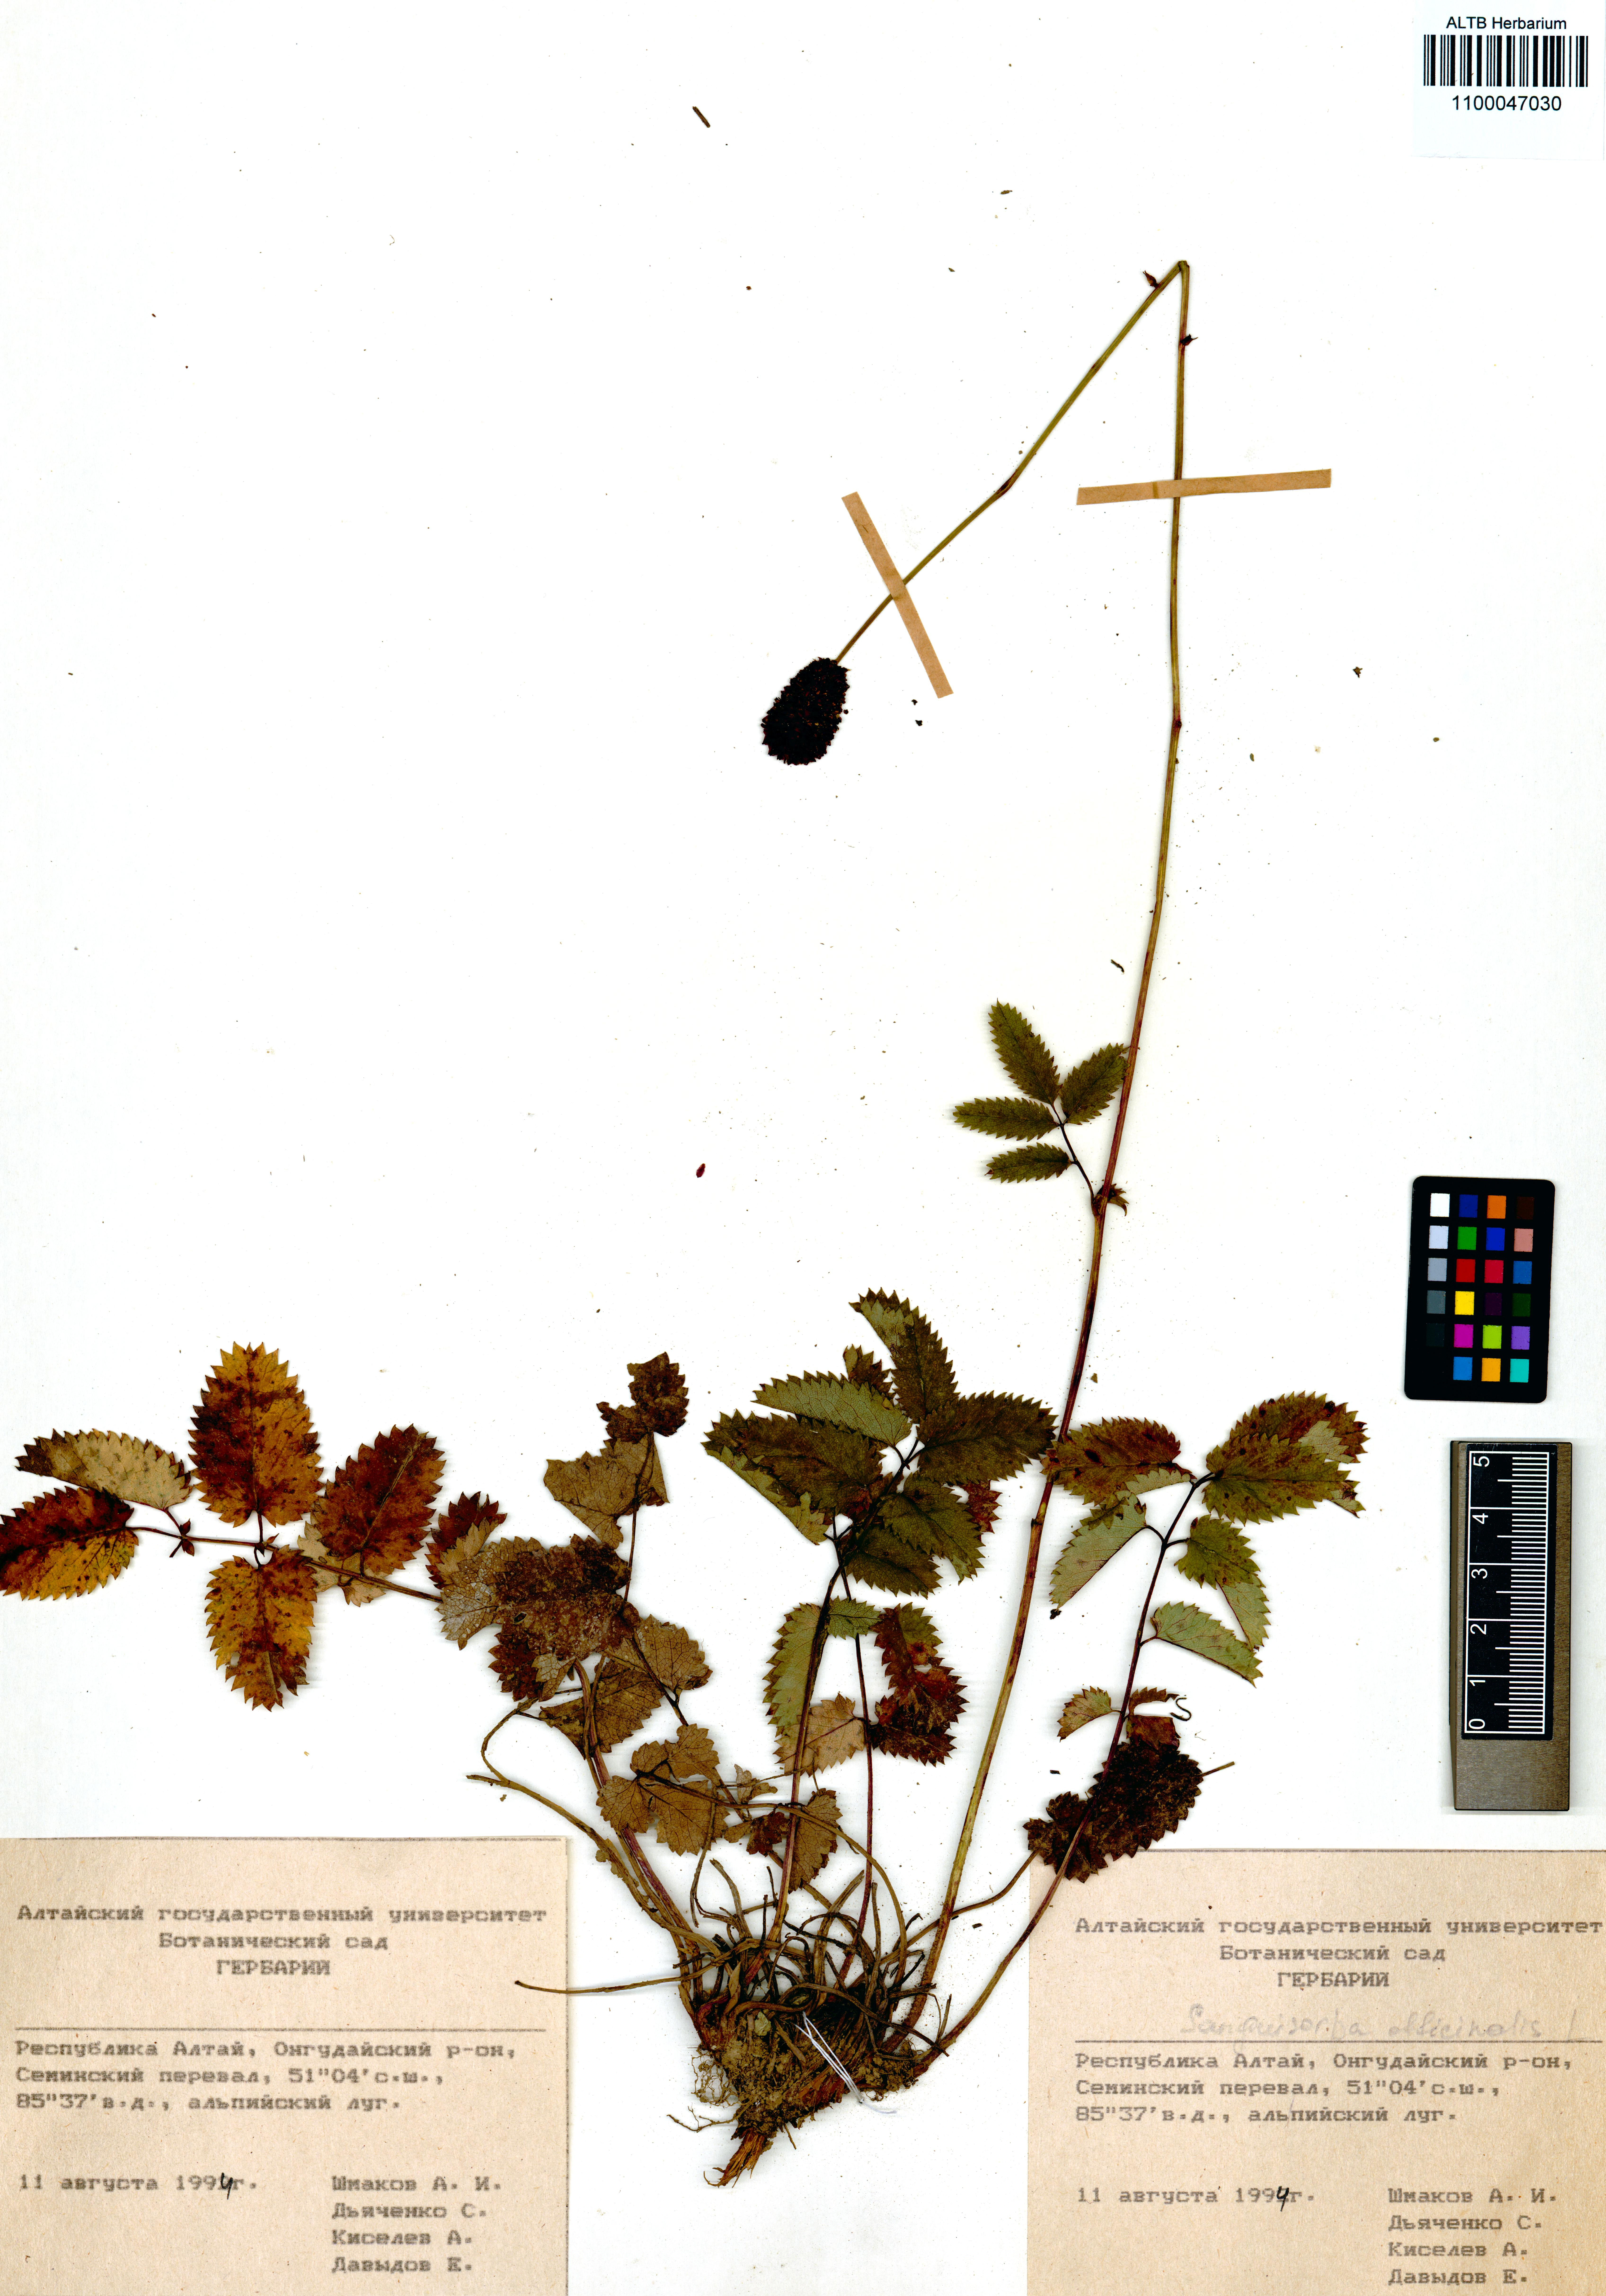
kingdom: Plantae
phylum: Tracheophyta
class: Magnoliopsida
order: Rosales
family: Rosaceae
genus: Sanguisorba
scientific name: Sanguisorba officinalis
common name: Great burnet
